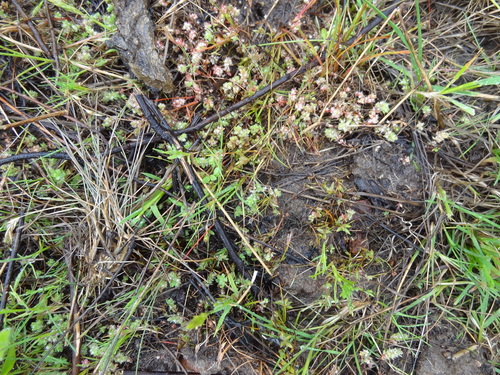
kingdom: Plantae
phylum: Tracheophyta
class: Magnoliopsida
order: Caryophyllales
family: Caryophyllaceae
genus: Illecebrum
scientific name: Illecebrum verticillatum
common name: Coral necklace
